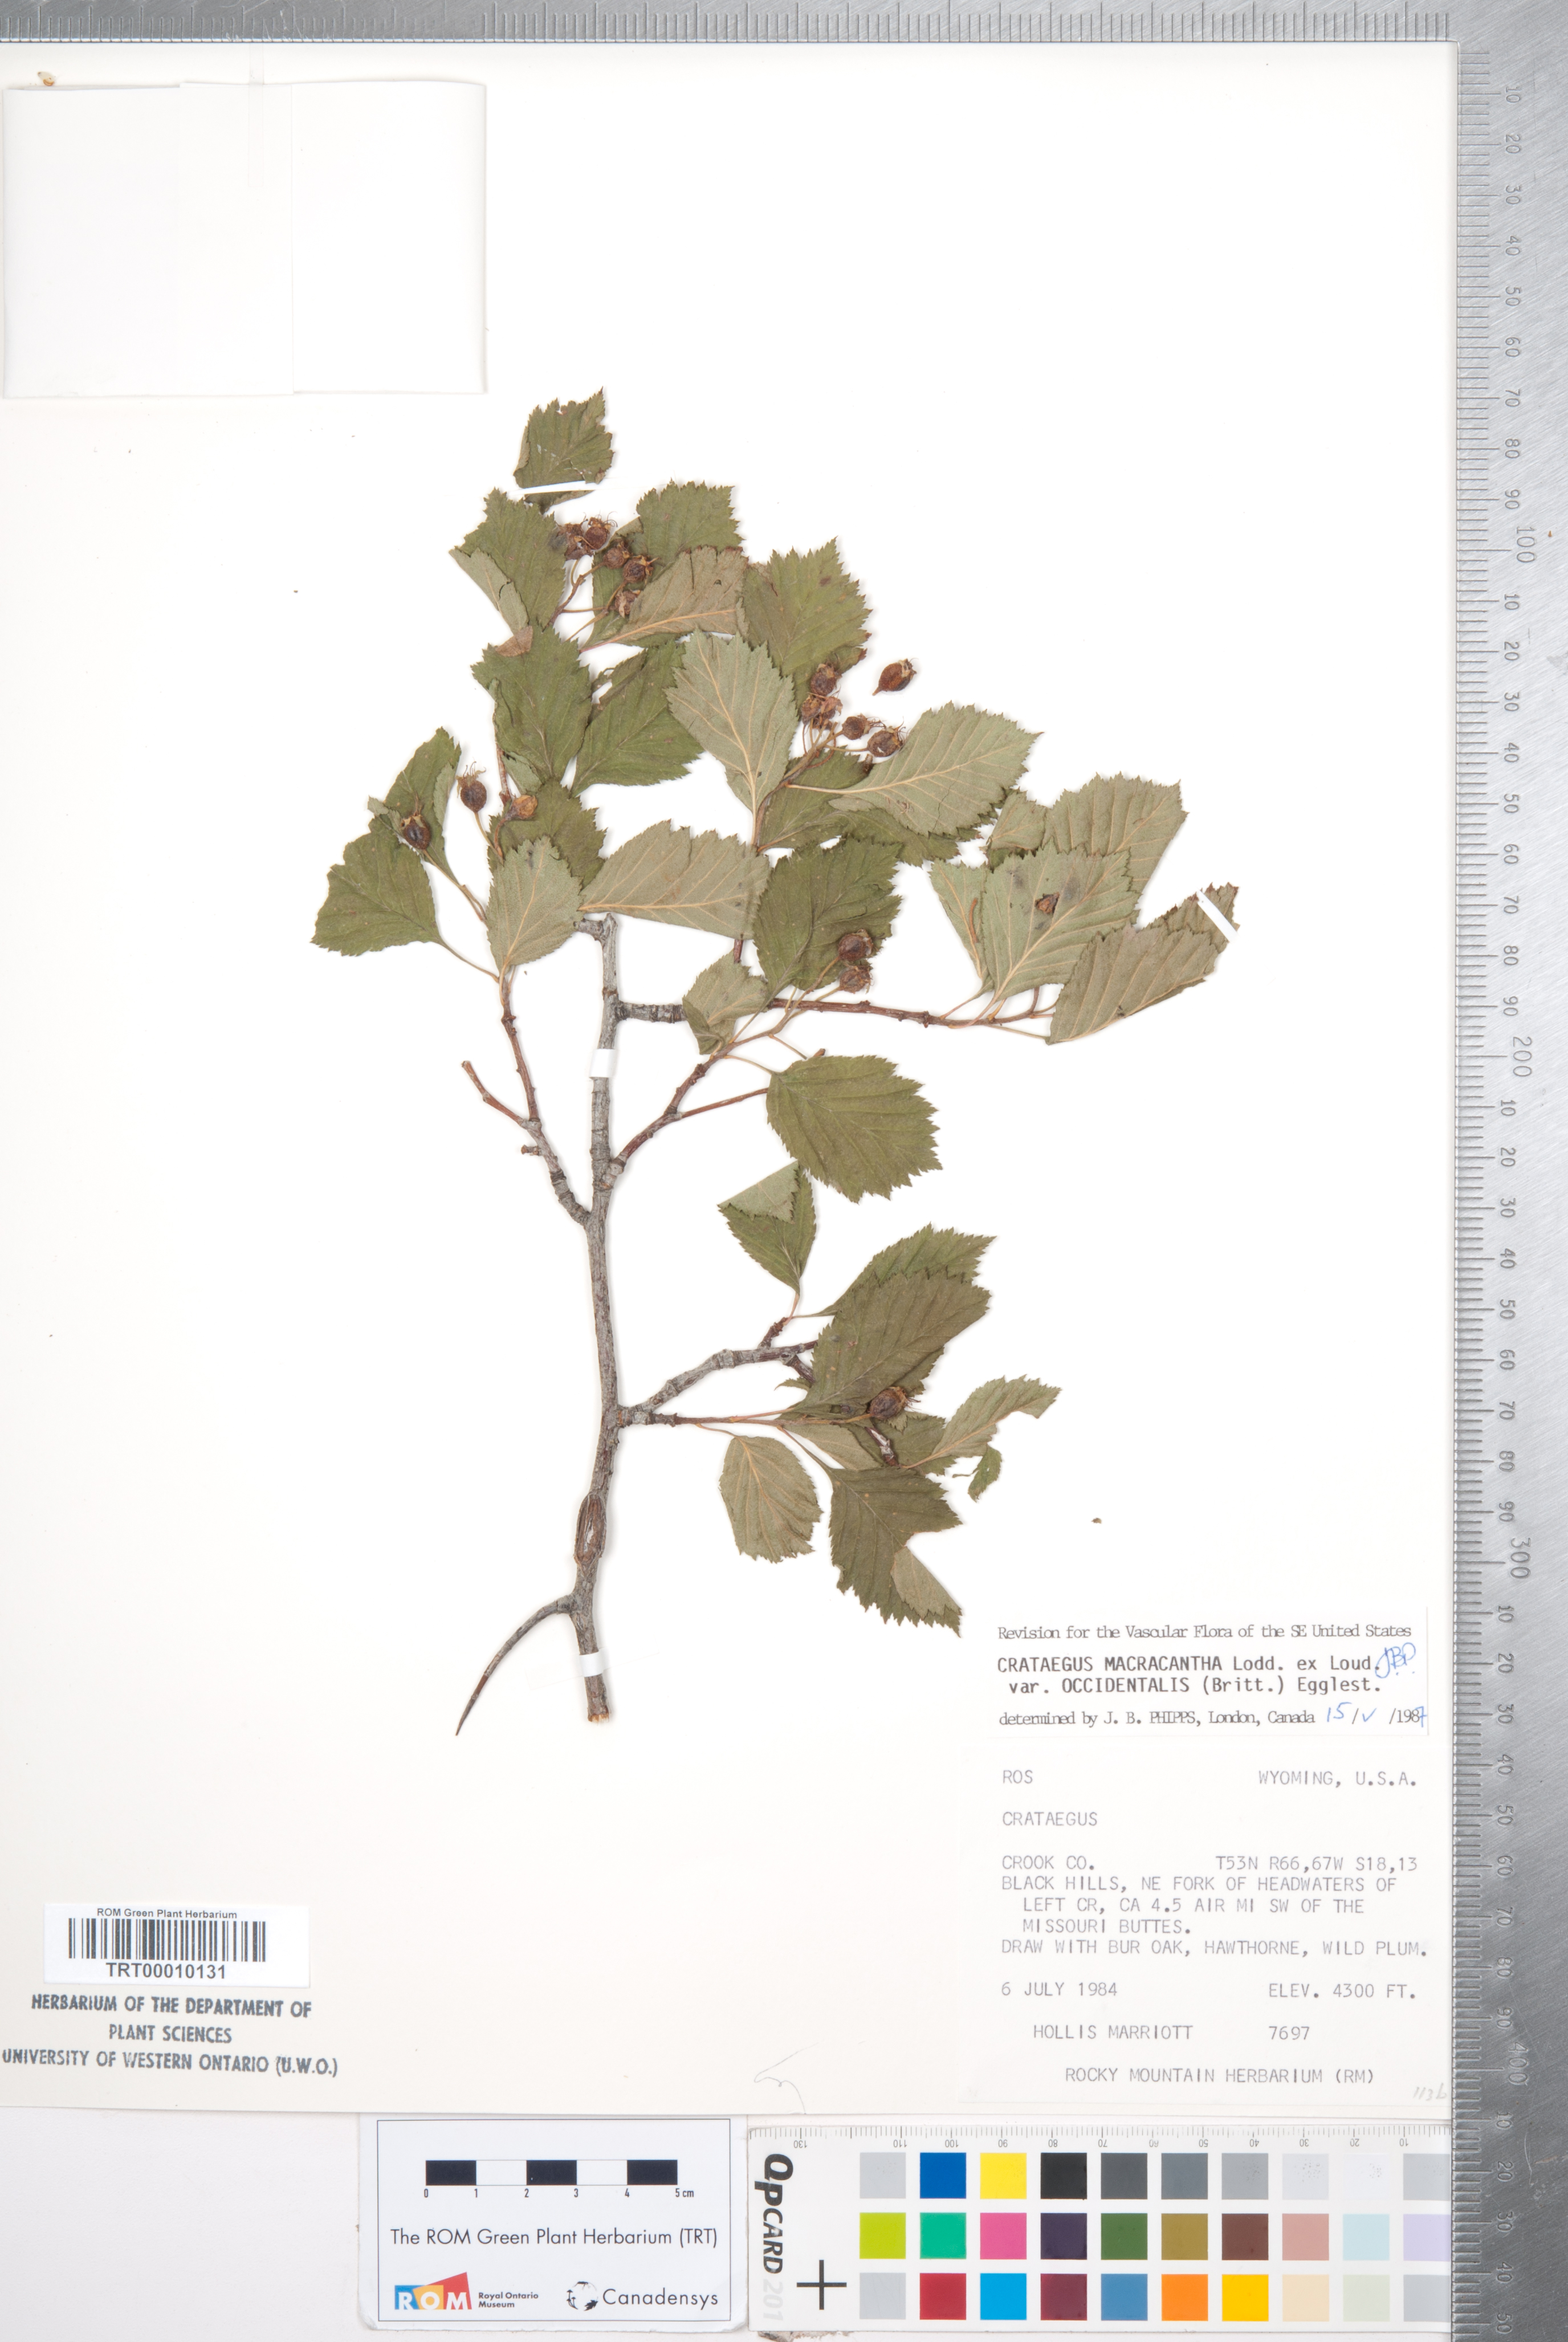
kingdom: Plantae
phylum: Tracheophyta
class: Magnoliopsida
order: Rosales
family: Rosaceae
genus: Crataegus
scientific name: Crataegus macracantha
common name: Large-thorn hawthorn
